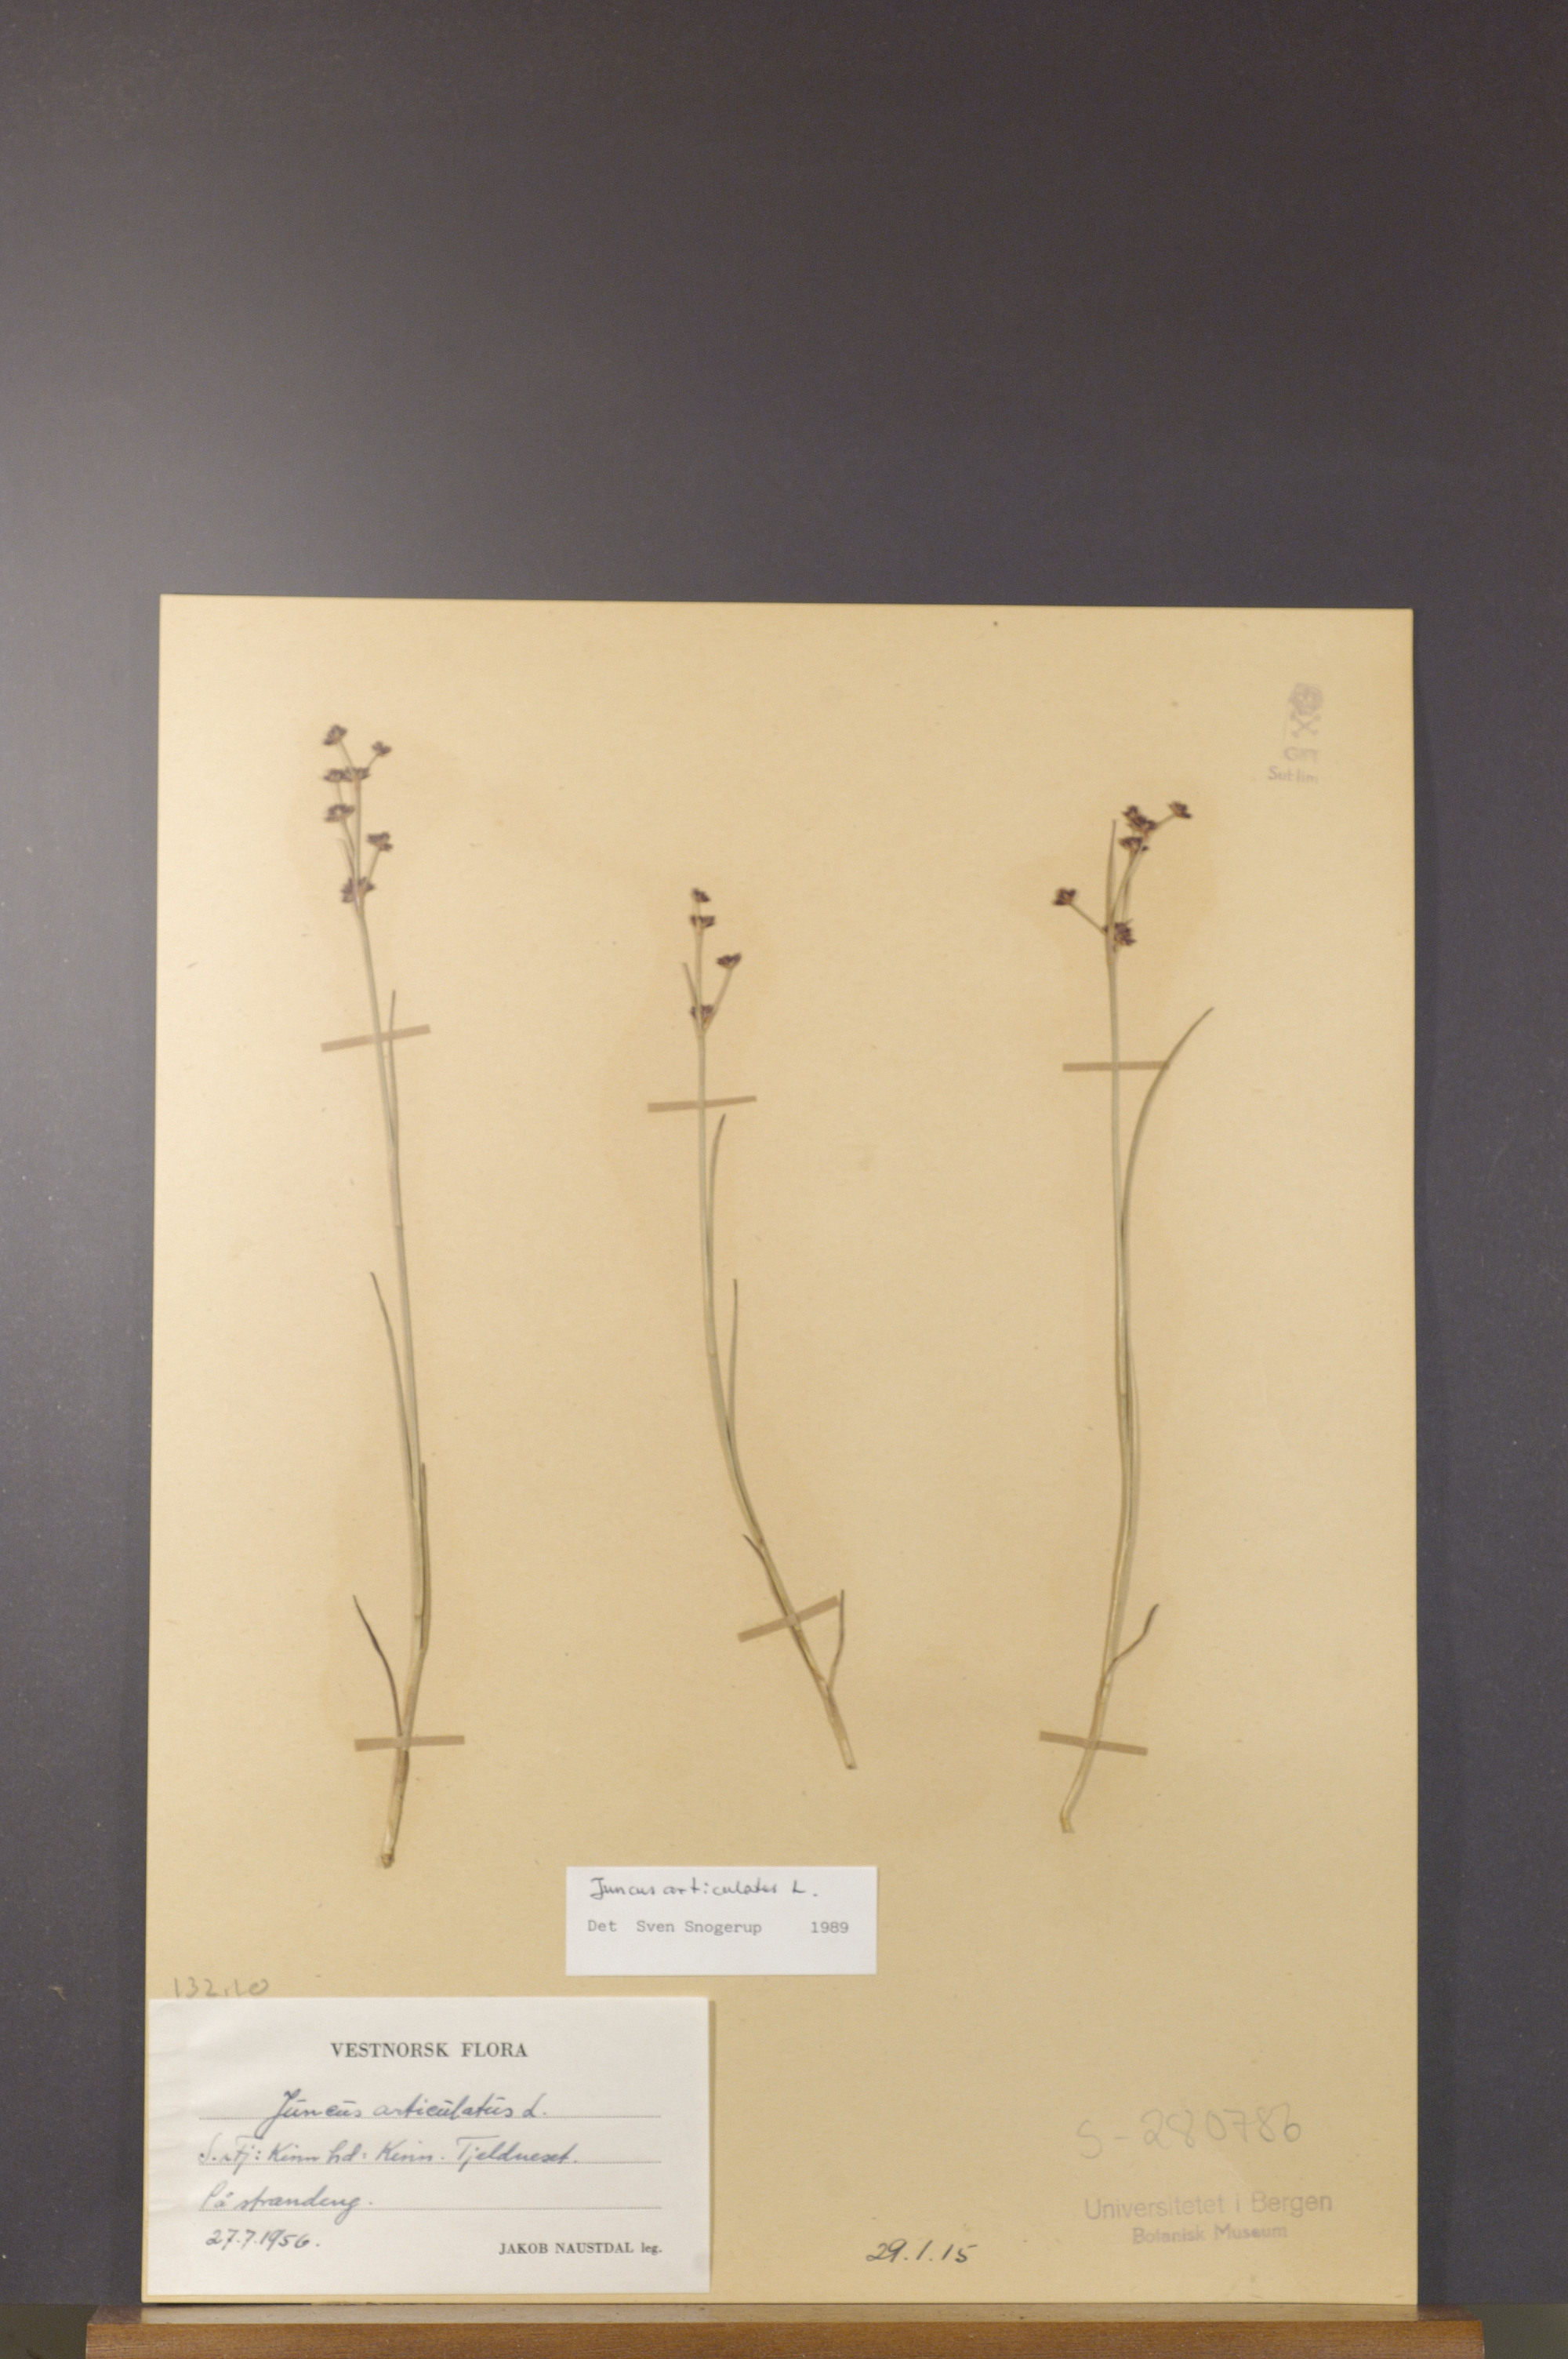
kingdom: Plantae
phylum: Tracheophyta
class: Liliopsida
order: Poales
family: Juncaceae
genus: Juncus
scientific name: Juncus articulatus
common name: Jointed rush
